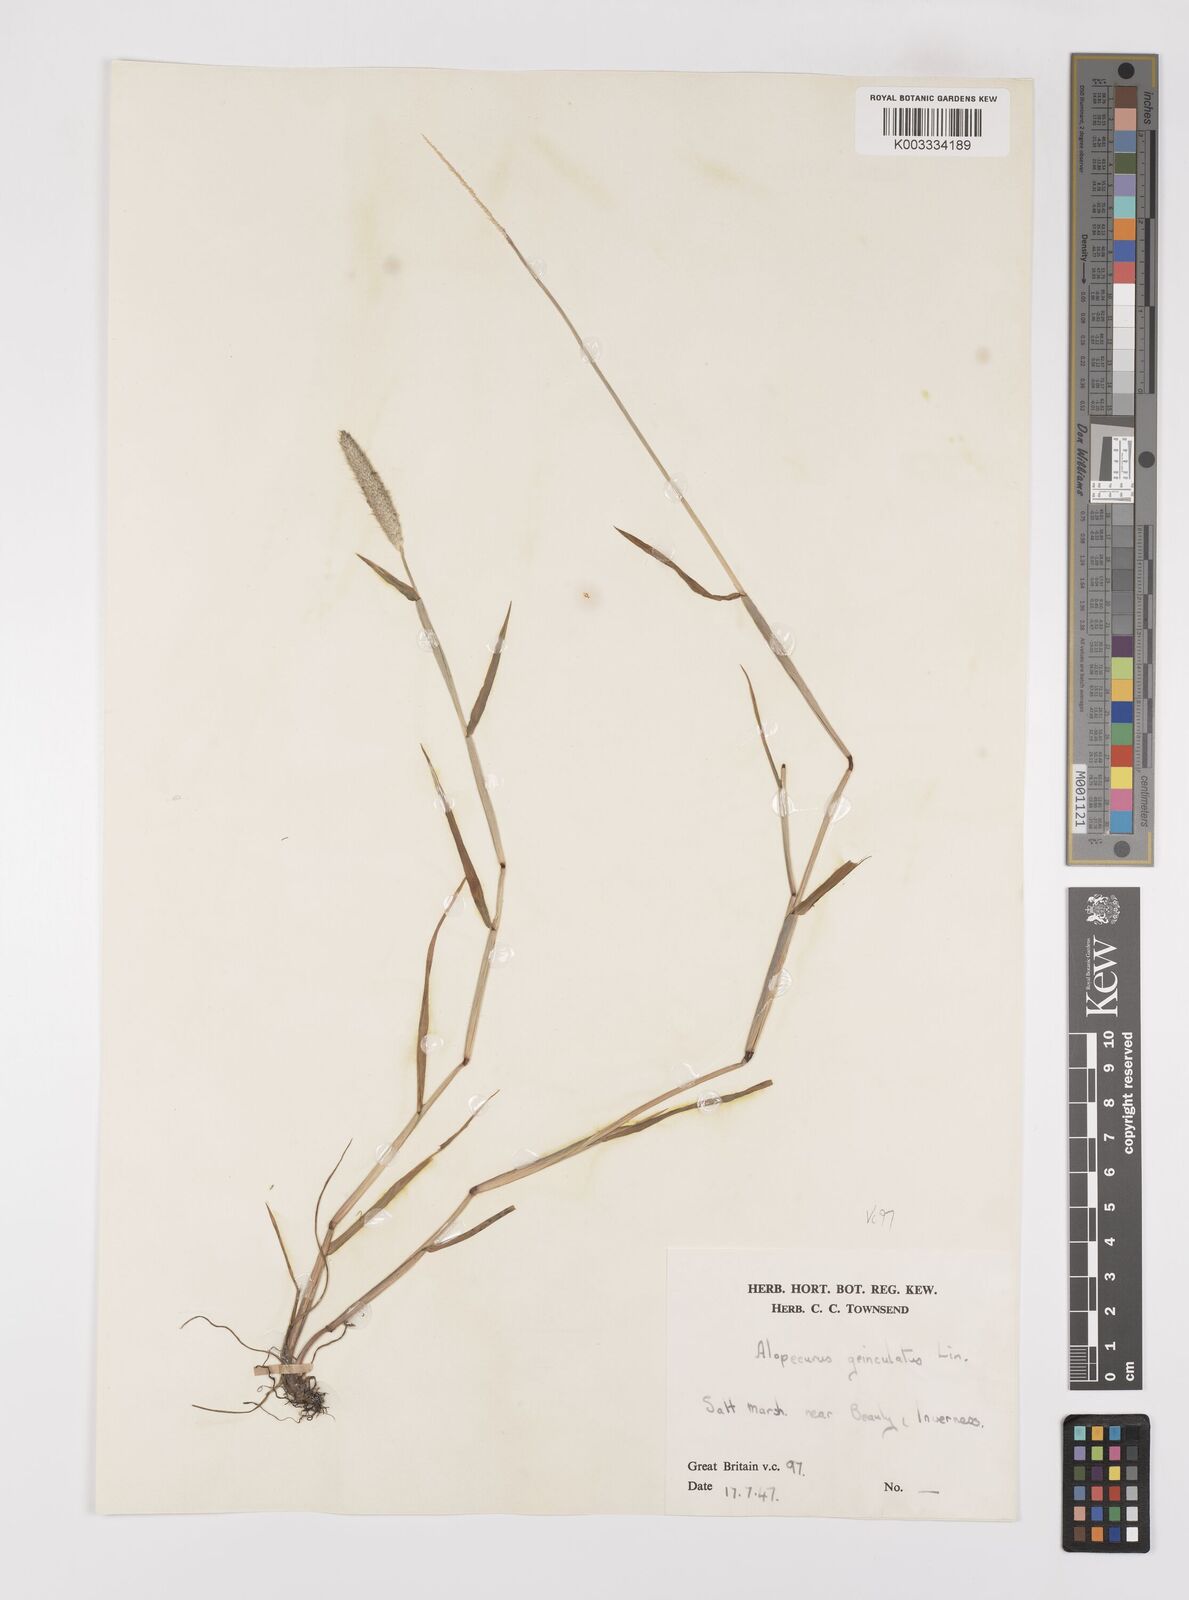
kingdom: Plantae
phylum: Tracheophyta
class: Liliopsida
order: Poales
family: Poaceae
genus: Alopecurus
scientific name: Alopecurus geniculatus
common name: Water foxtail
